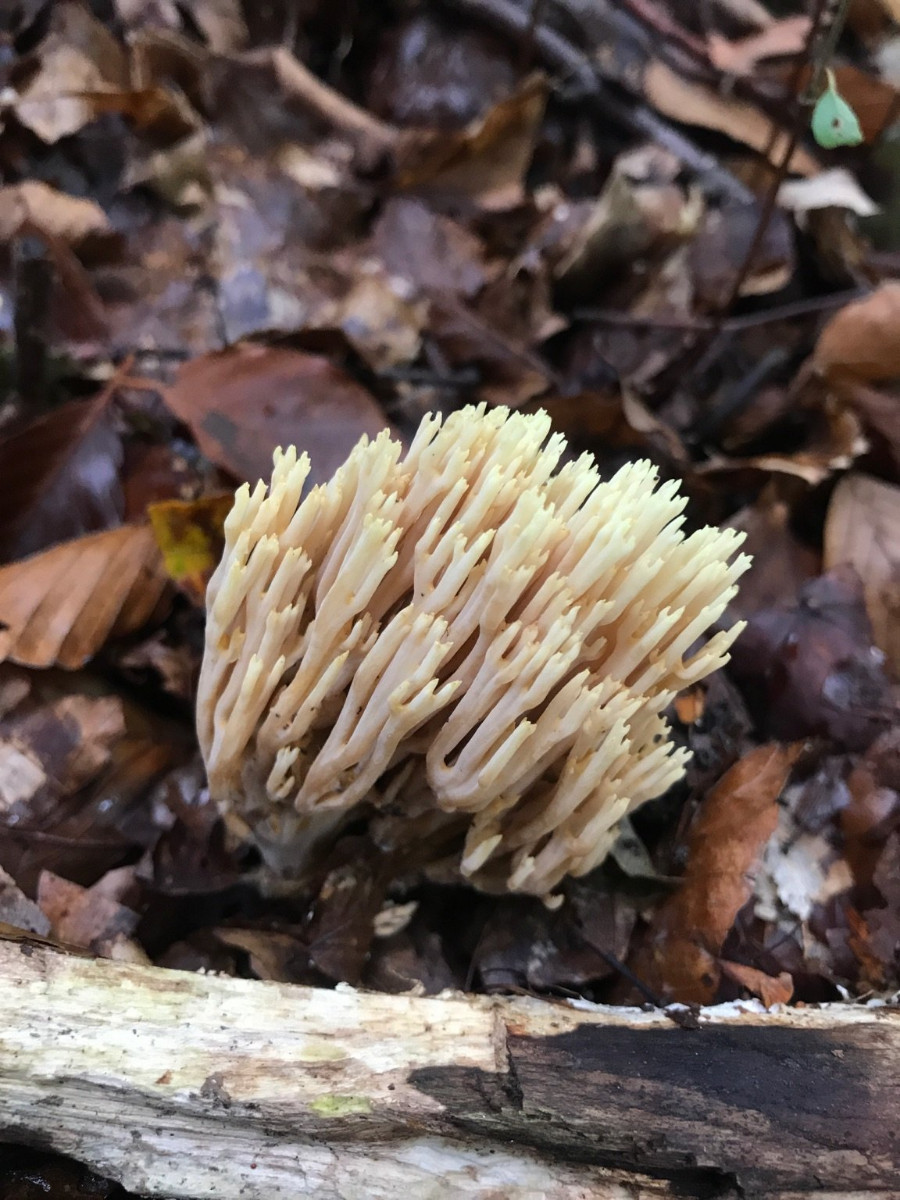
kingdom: Fungi
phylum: Basidiomycota
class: Agaricomycetes
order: Gomphales
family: Gomphaceae
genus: Ramaria
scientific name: Ramaria stricta
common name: rank koralsvamp
